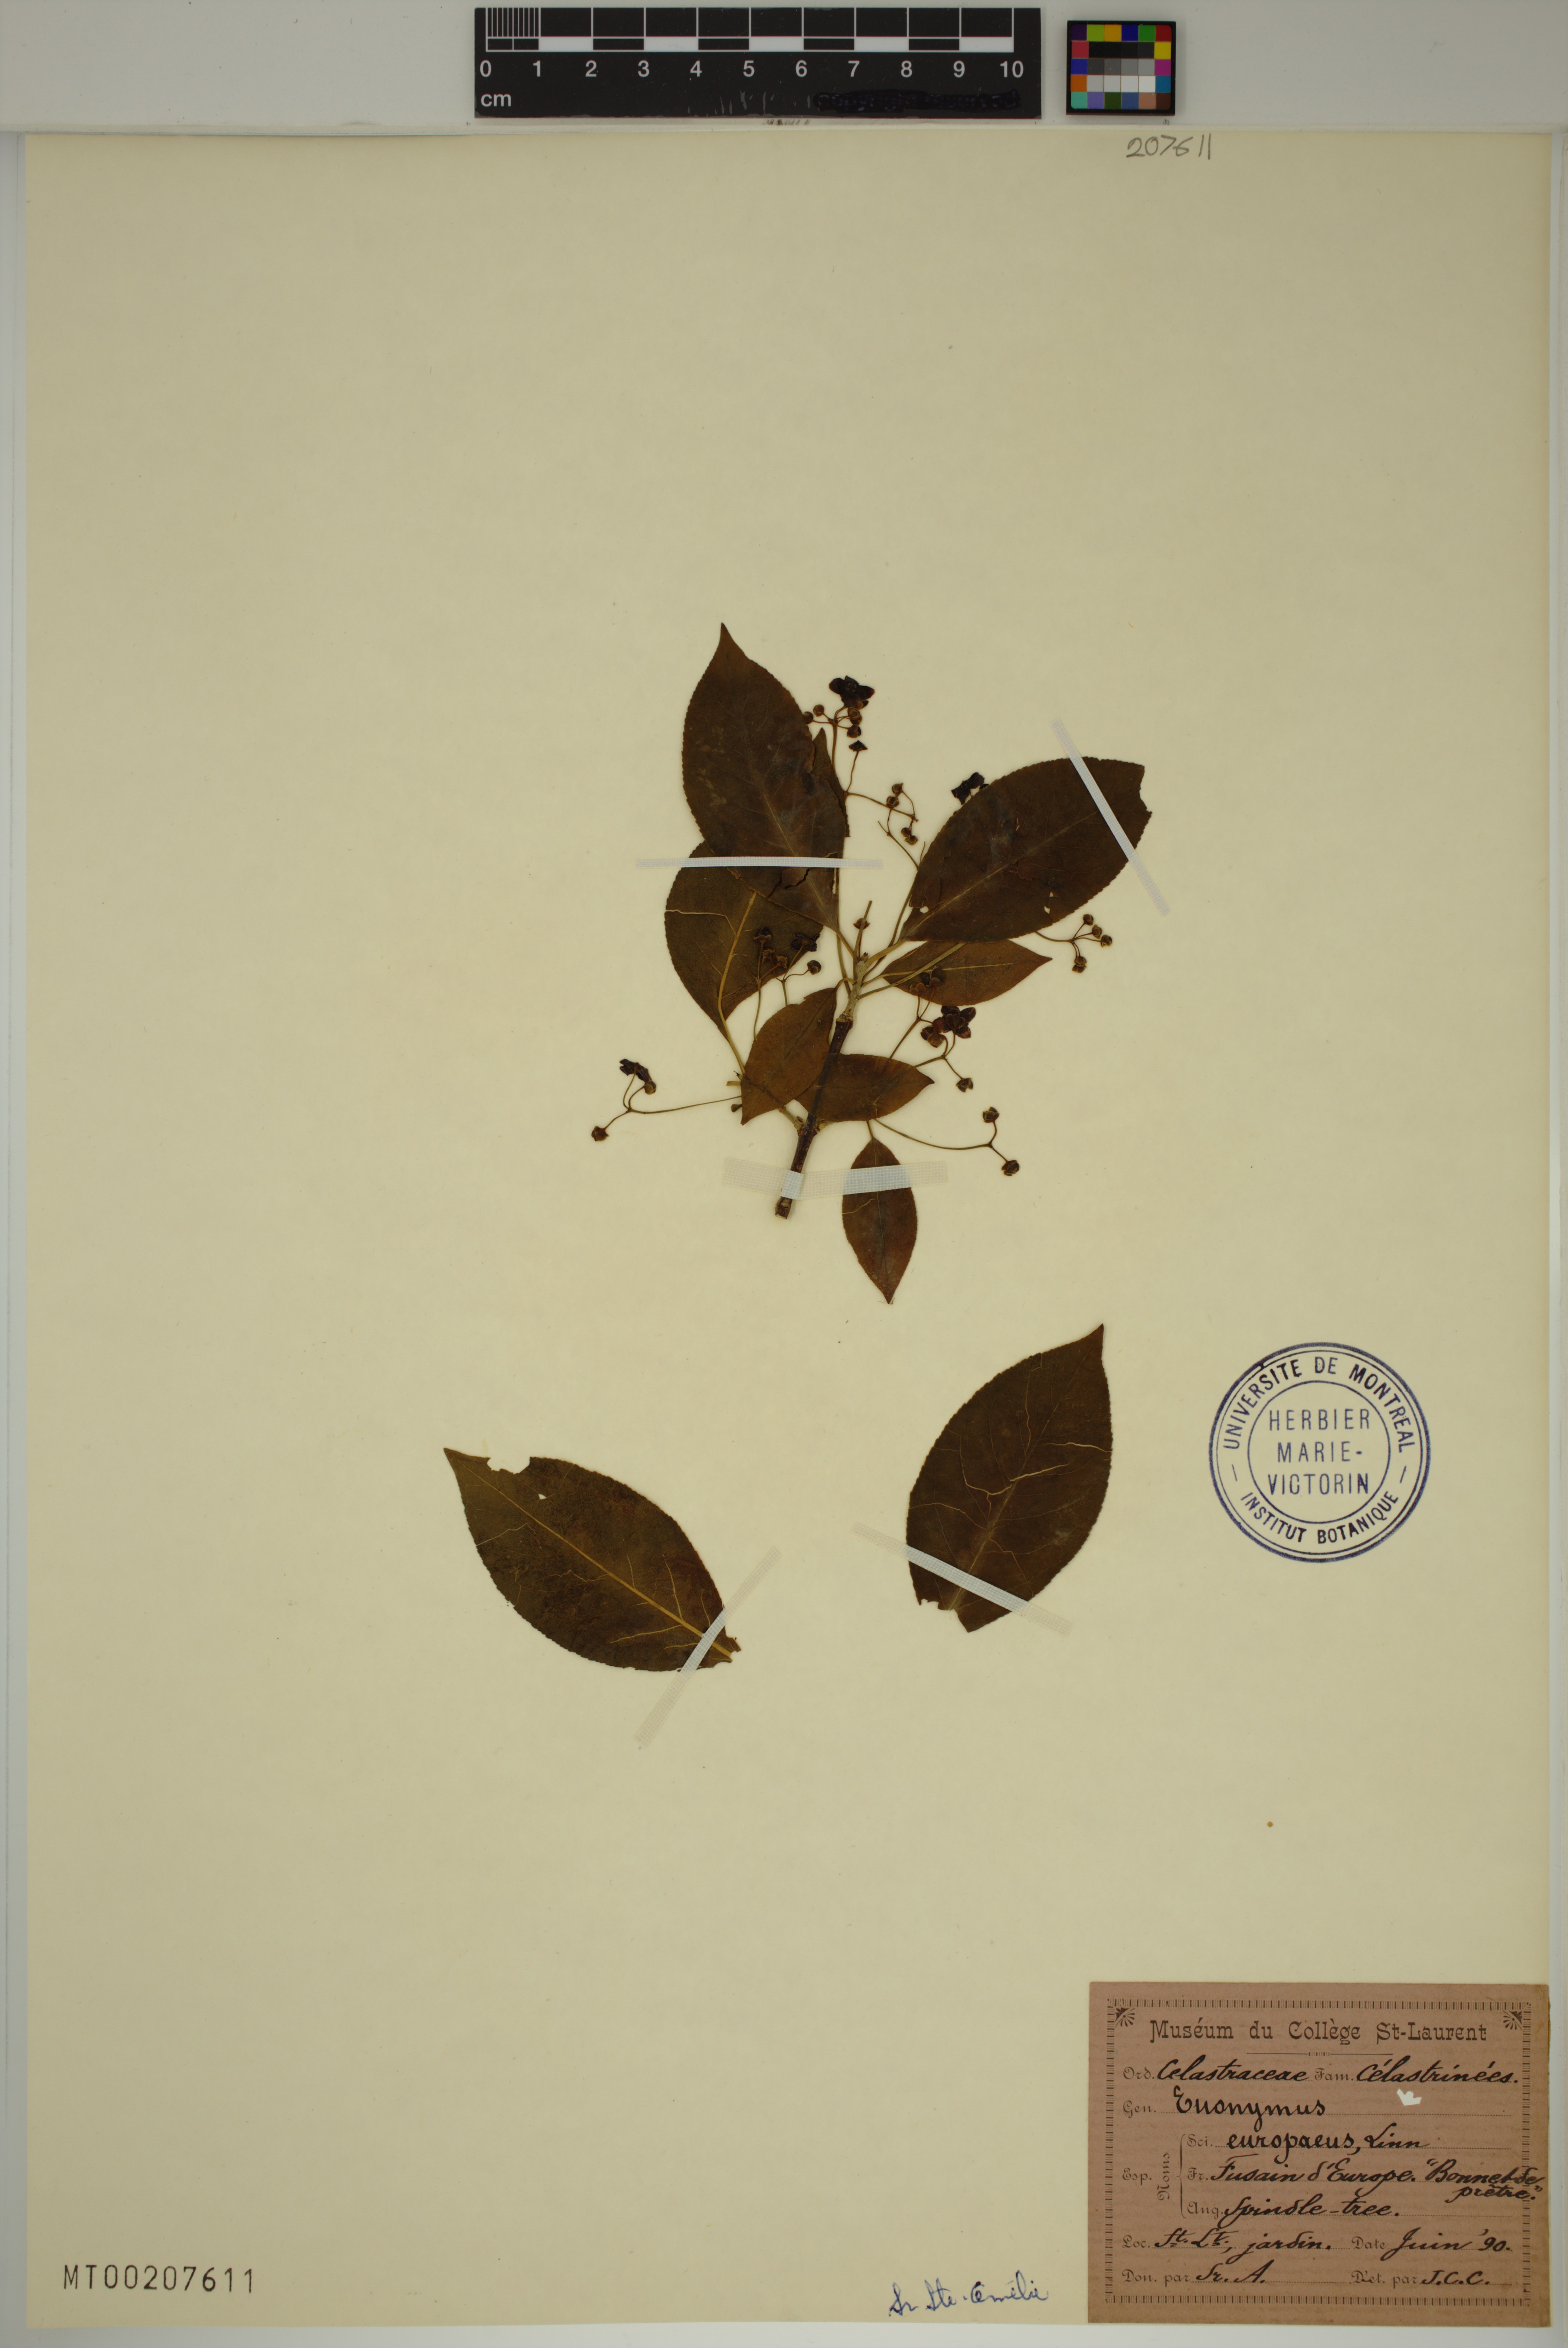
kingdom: Plantae
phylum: Tracheophyta
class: Magnoliopsida
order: Celastrales
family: Celastraceae
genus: Euonymus
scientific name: Euonymus europaeus
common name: Spindle
